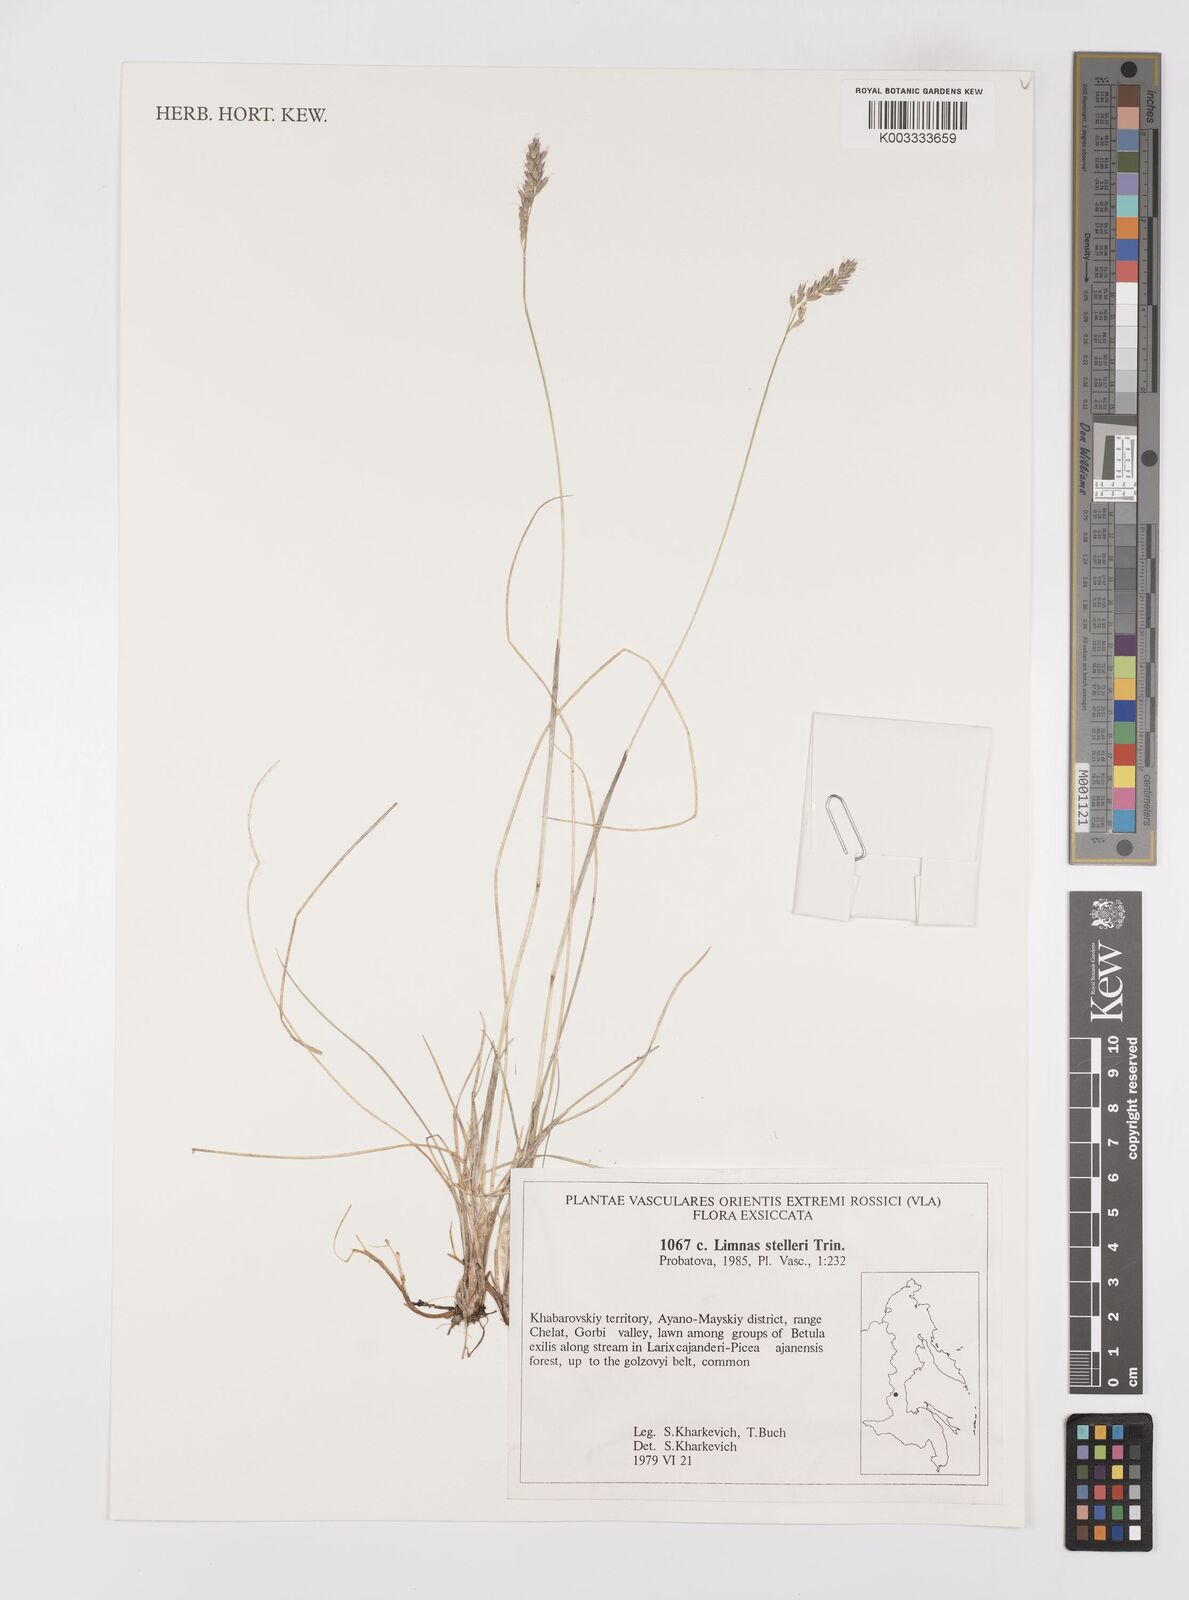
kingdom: Plantae
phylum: Tracheophyta
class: Liliopsida
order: Poales
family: Poaceae
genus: Limnas
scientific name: Limnas stelleri
